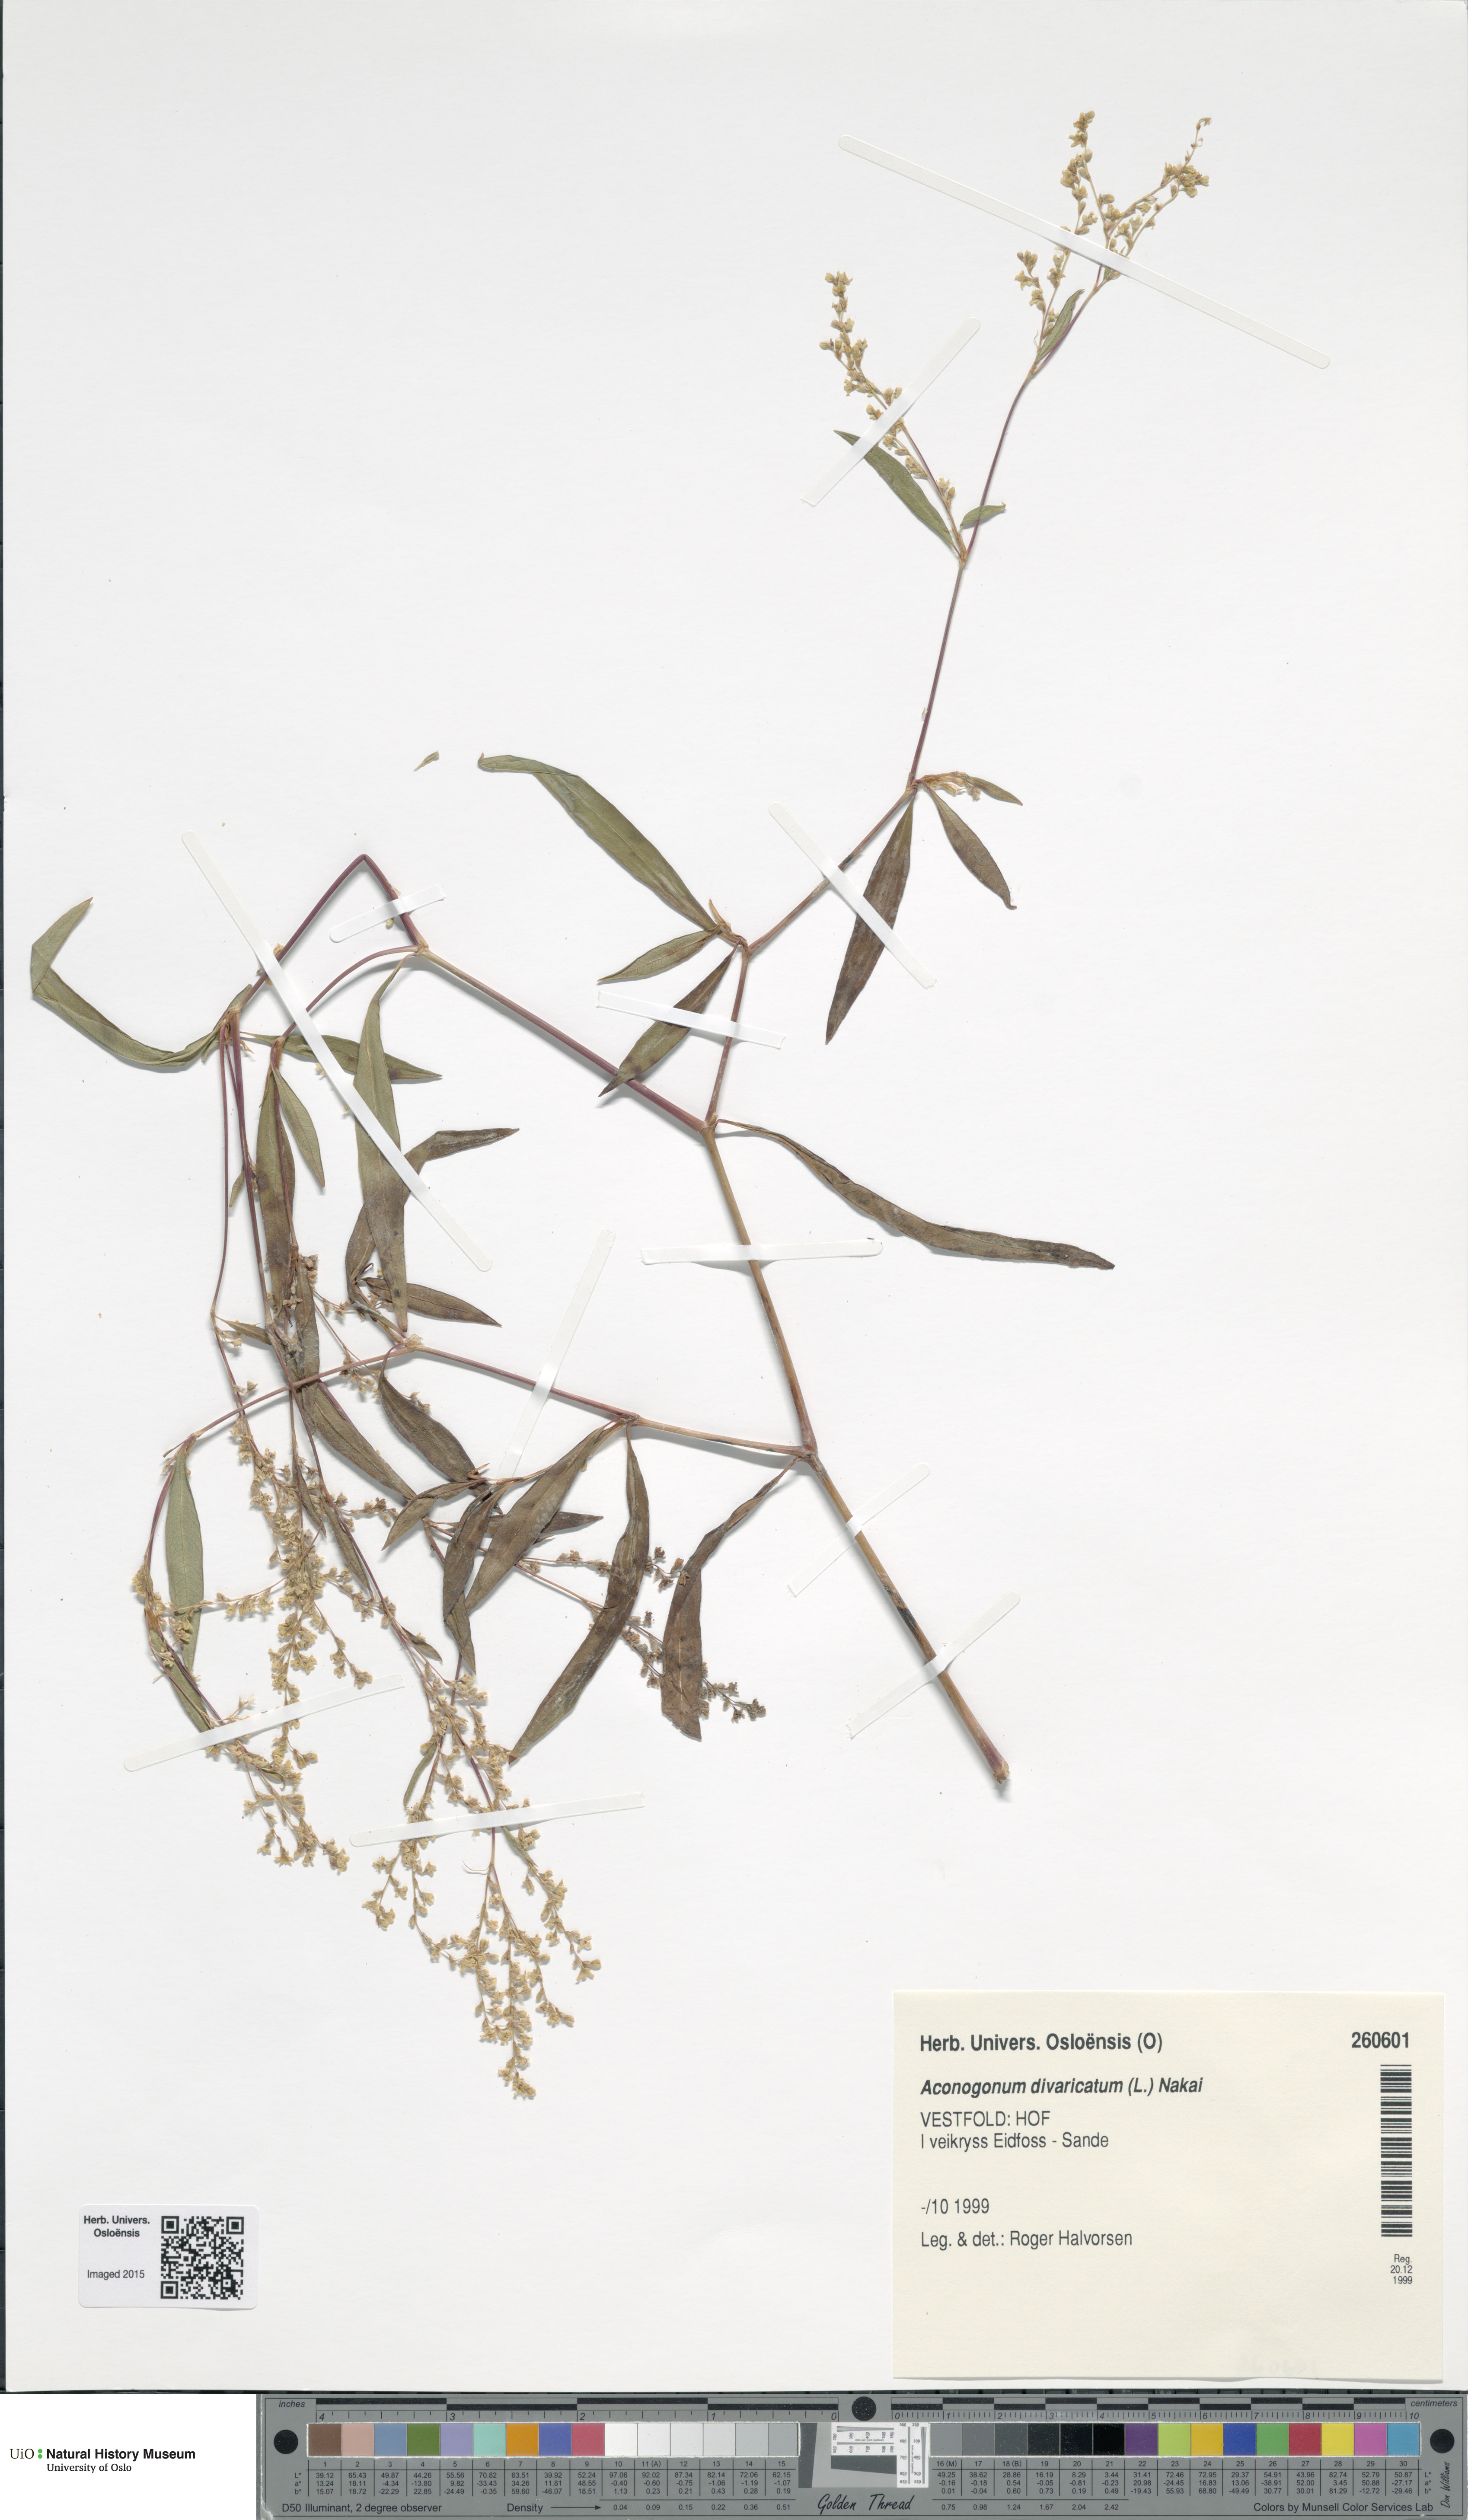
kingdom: Plantae
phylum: Tracheophyta
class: Magnoliopsida
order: Caryophyllales
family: Polygonaceae
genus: Koenigia
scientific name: Koenigia divaricata
